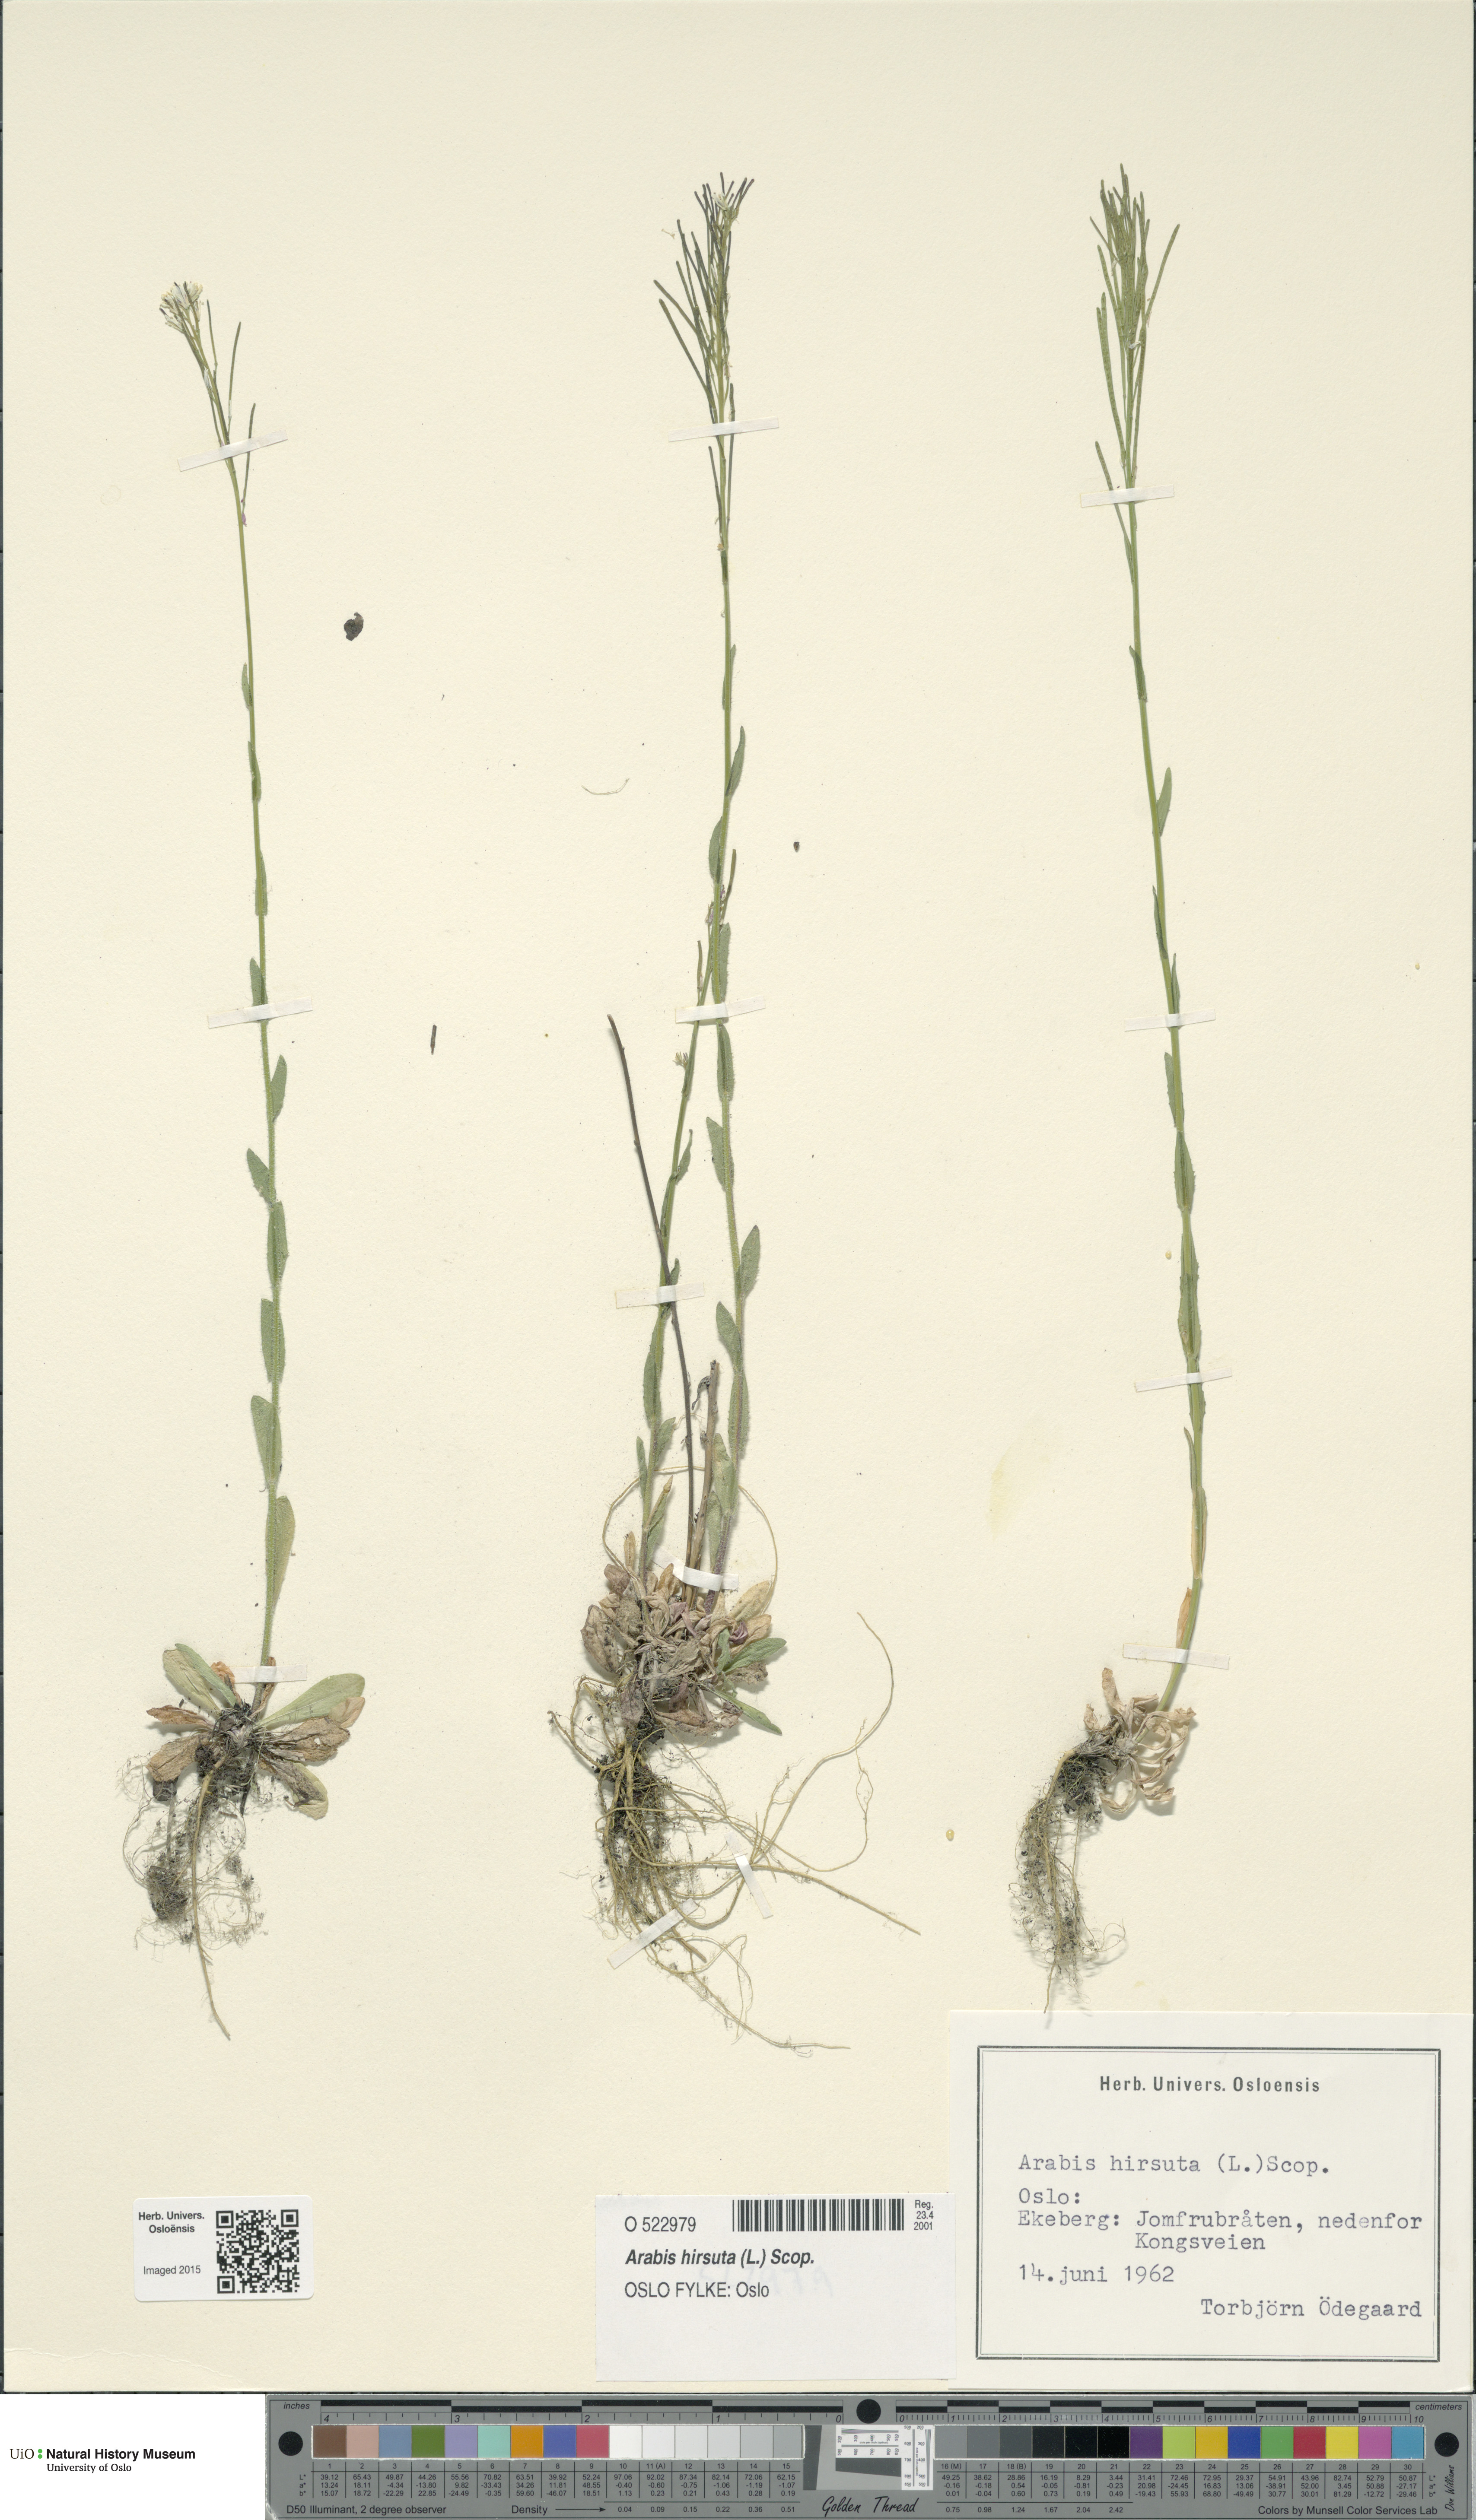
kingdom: Plantae
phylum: Tracheophyta
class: Magnoliopsida
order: Brassicales
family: Brassicaceae
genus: Arabis
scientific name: Arabis hirsuta
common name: Hairy rock-cress
